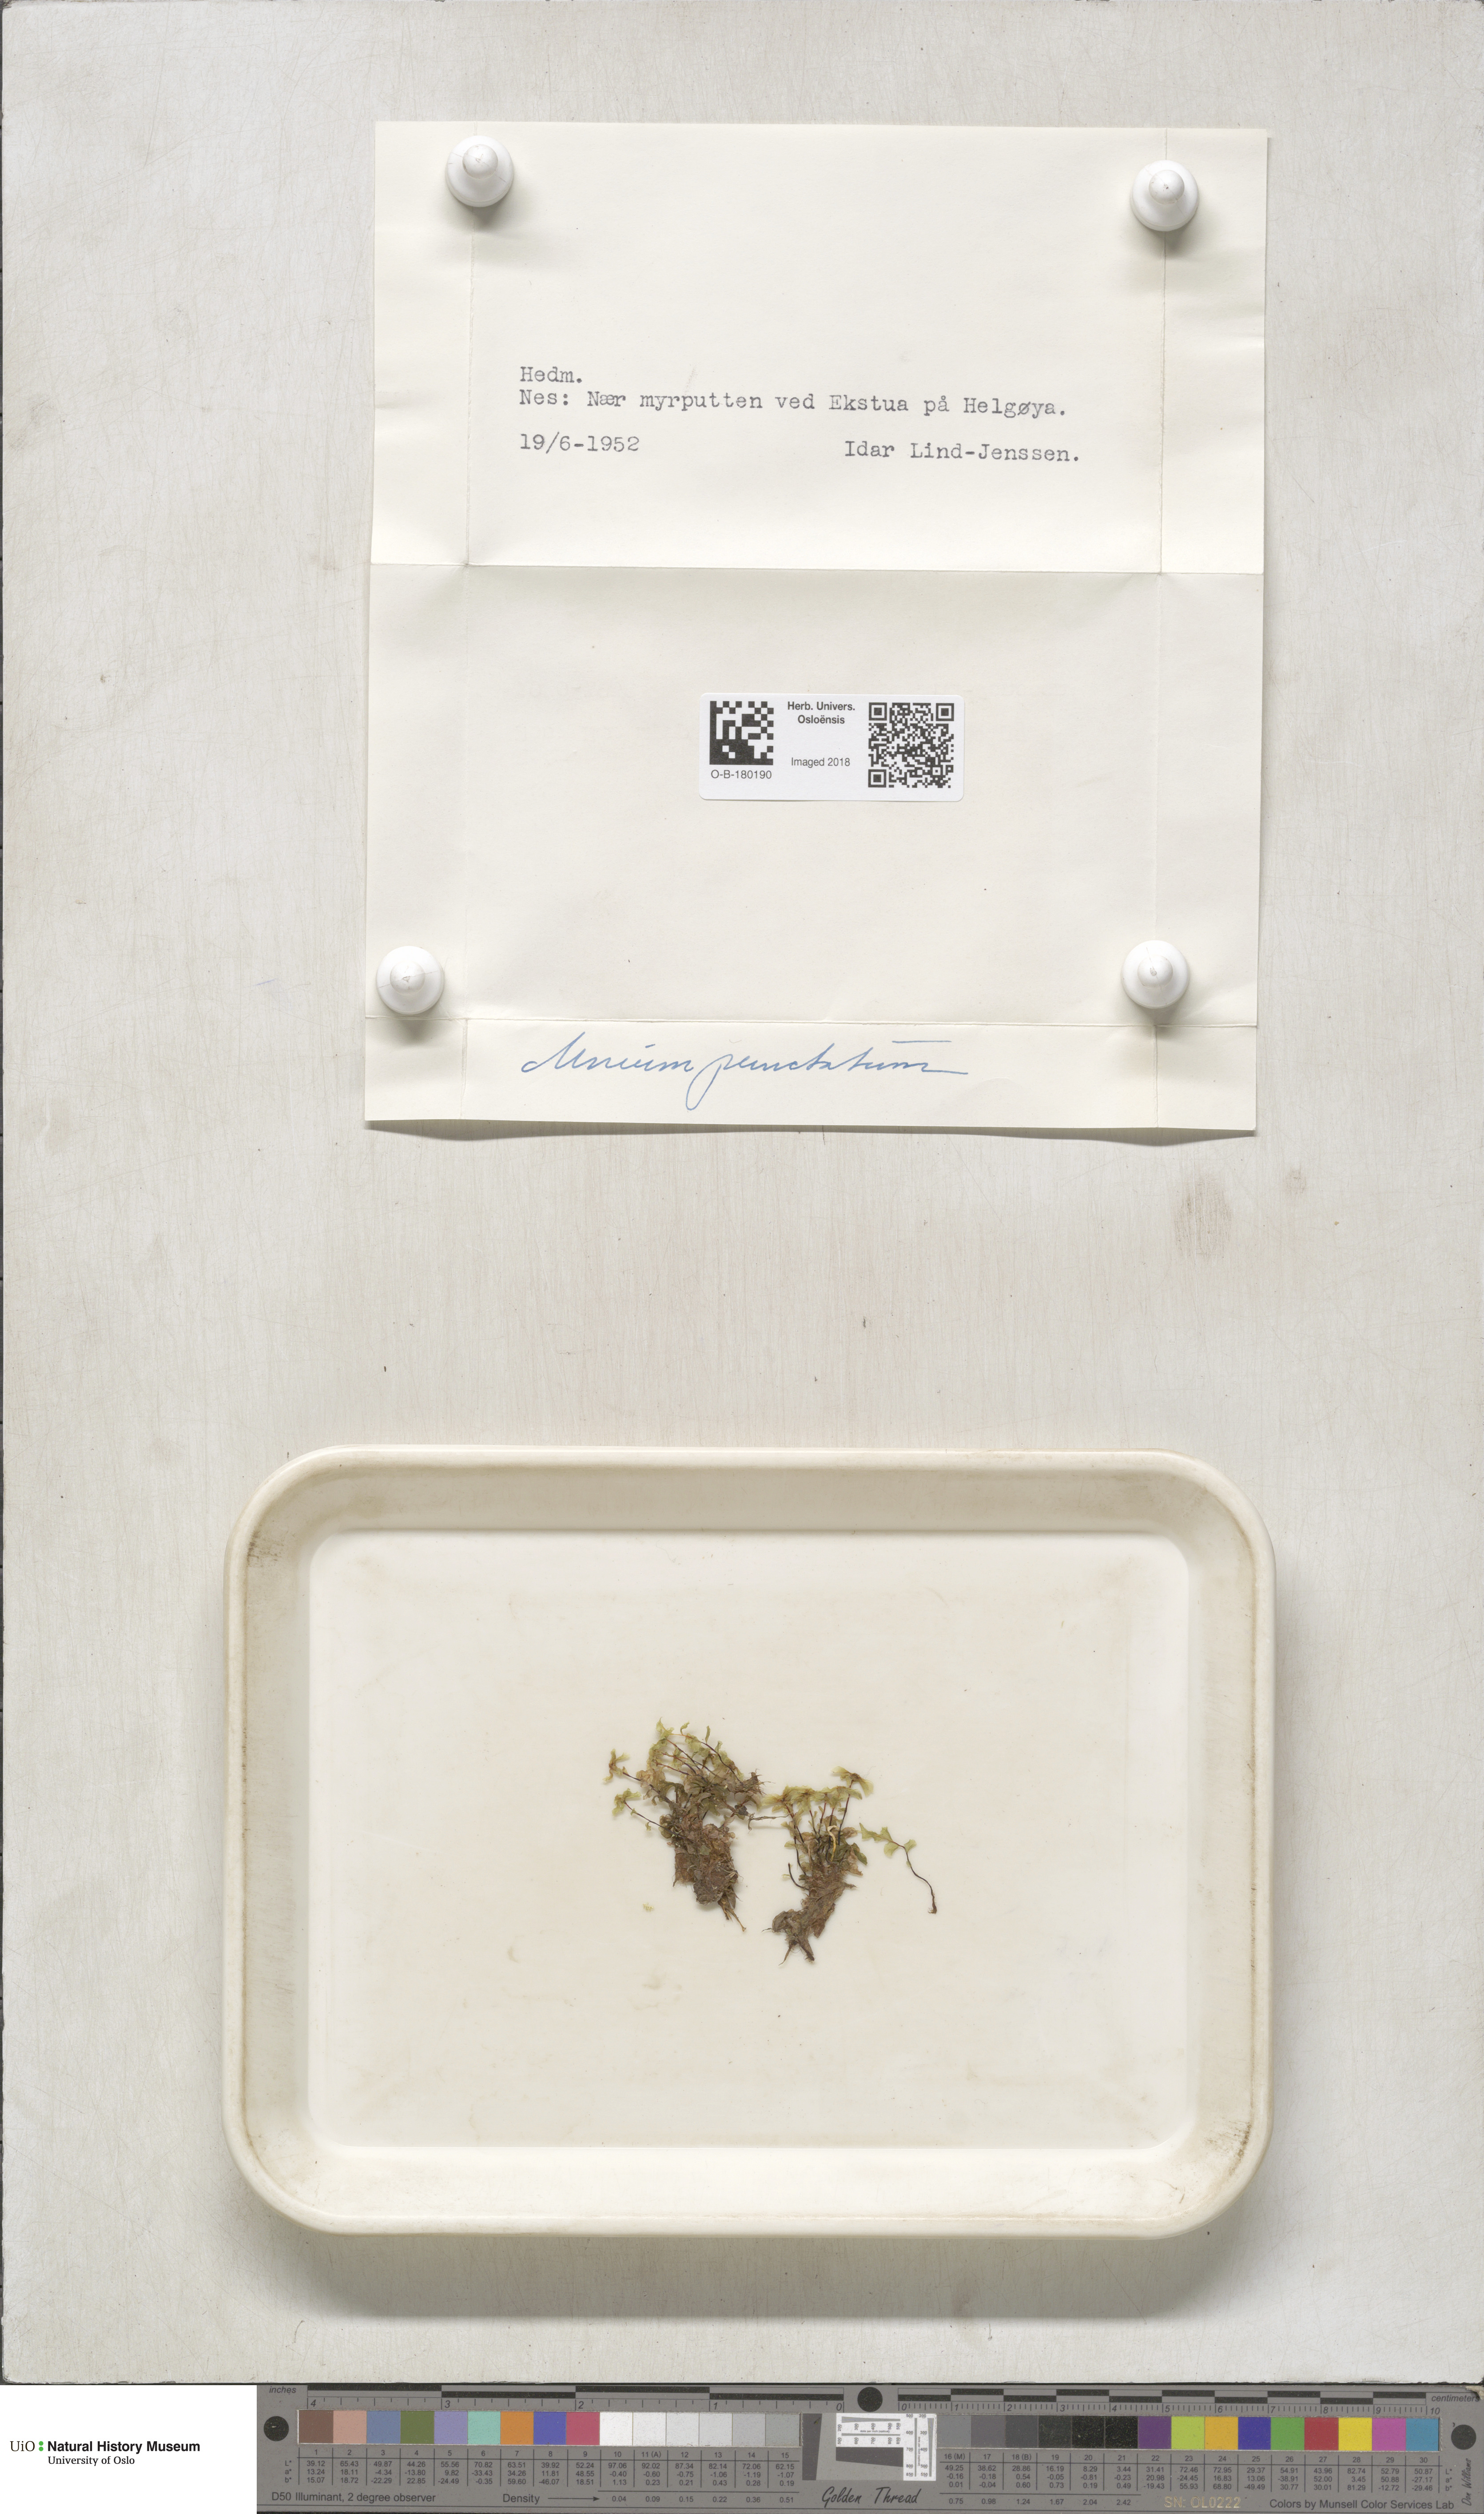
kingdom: Plantae
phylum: Bryophyta
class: Bryopsida
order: Bryales
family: Mniaceae
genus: Rhizomnium
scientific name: Rhizomnium punctatum
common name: Dotted leafy moss
